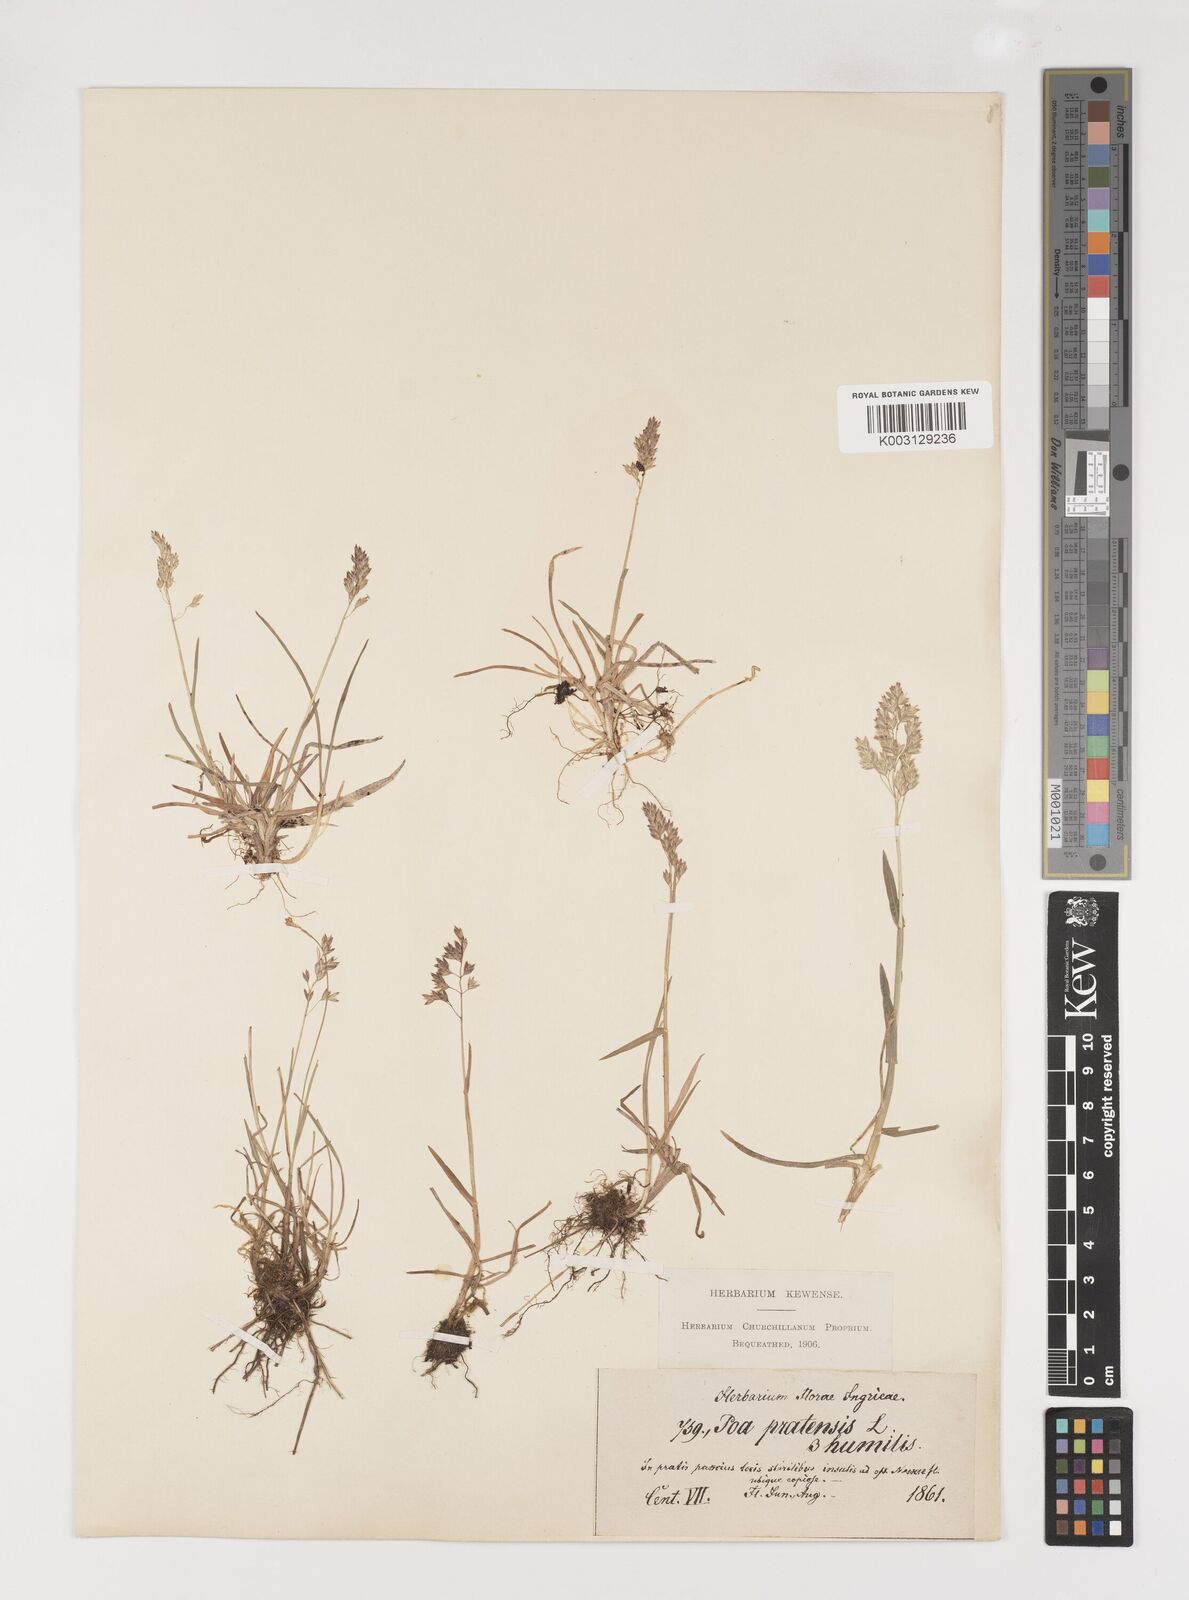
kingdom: Plantae
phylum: Tracheophyta
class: Liliopsida
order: Poales
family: Poaceae
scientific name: Poaceae
